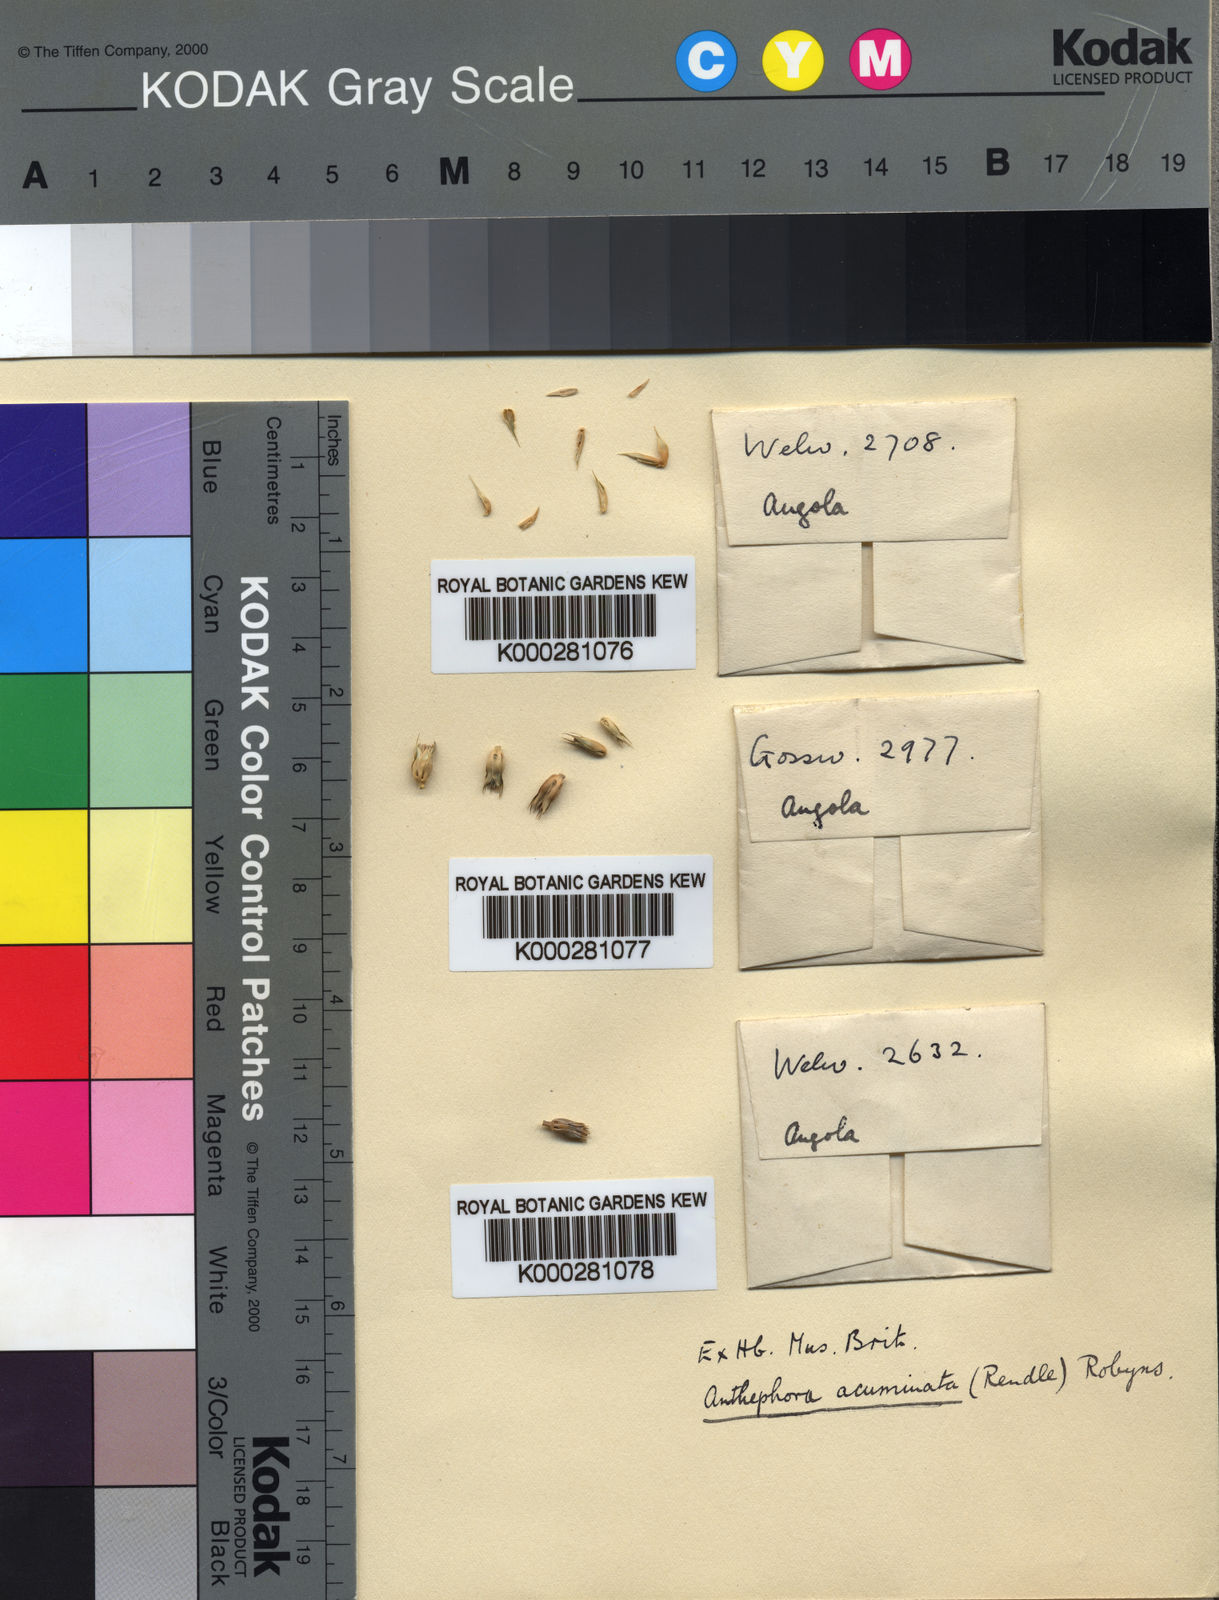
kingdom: Plantae
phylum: Tracheophyta
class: Liliopsida
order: Poales
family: Poaceae
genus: Anthephora
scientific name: Anthephora elongata
